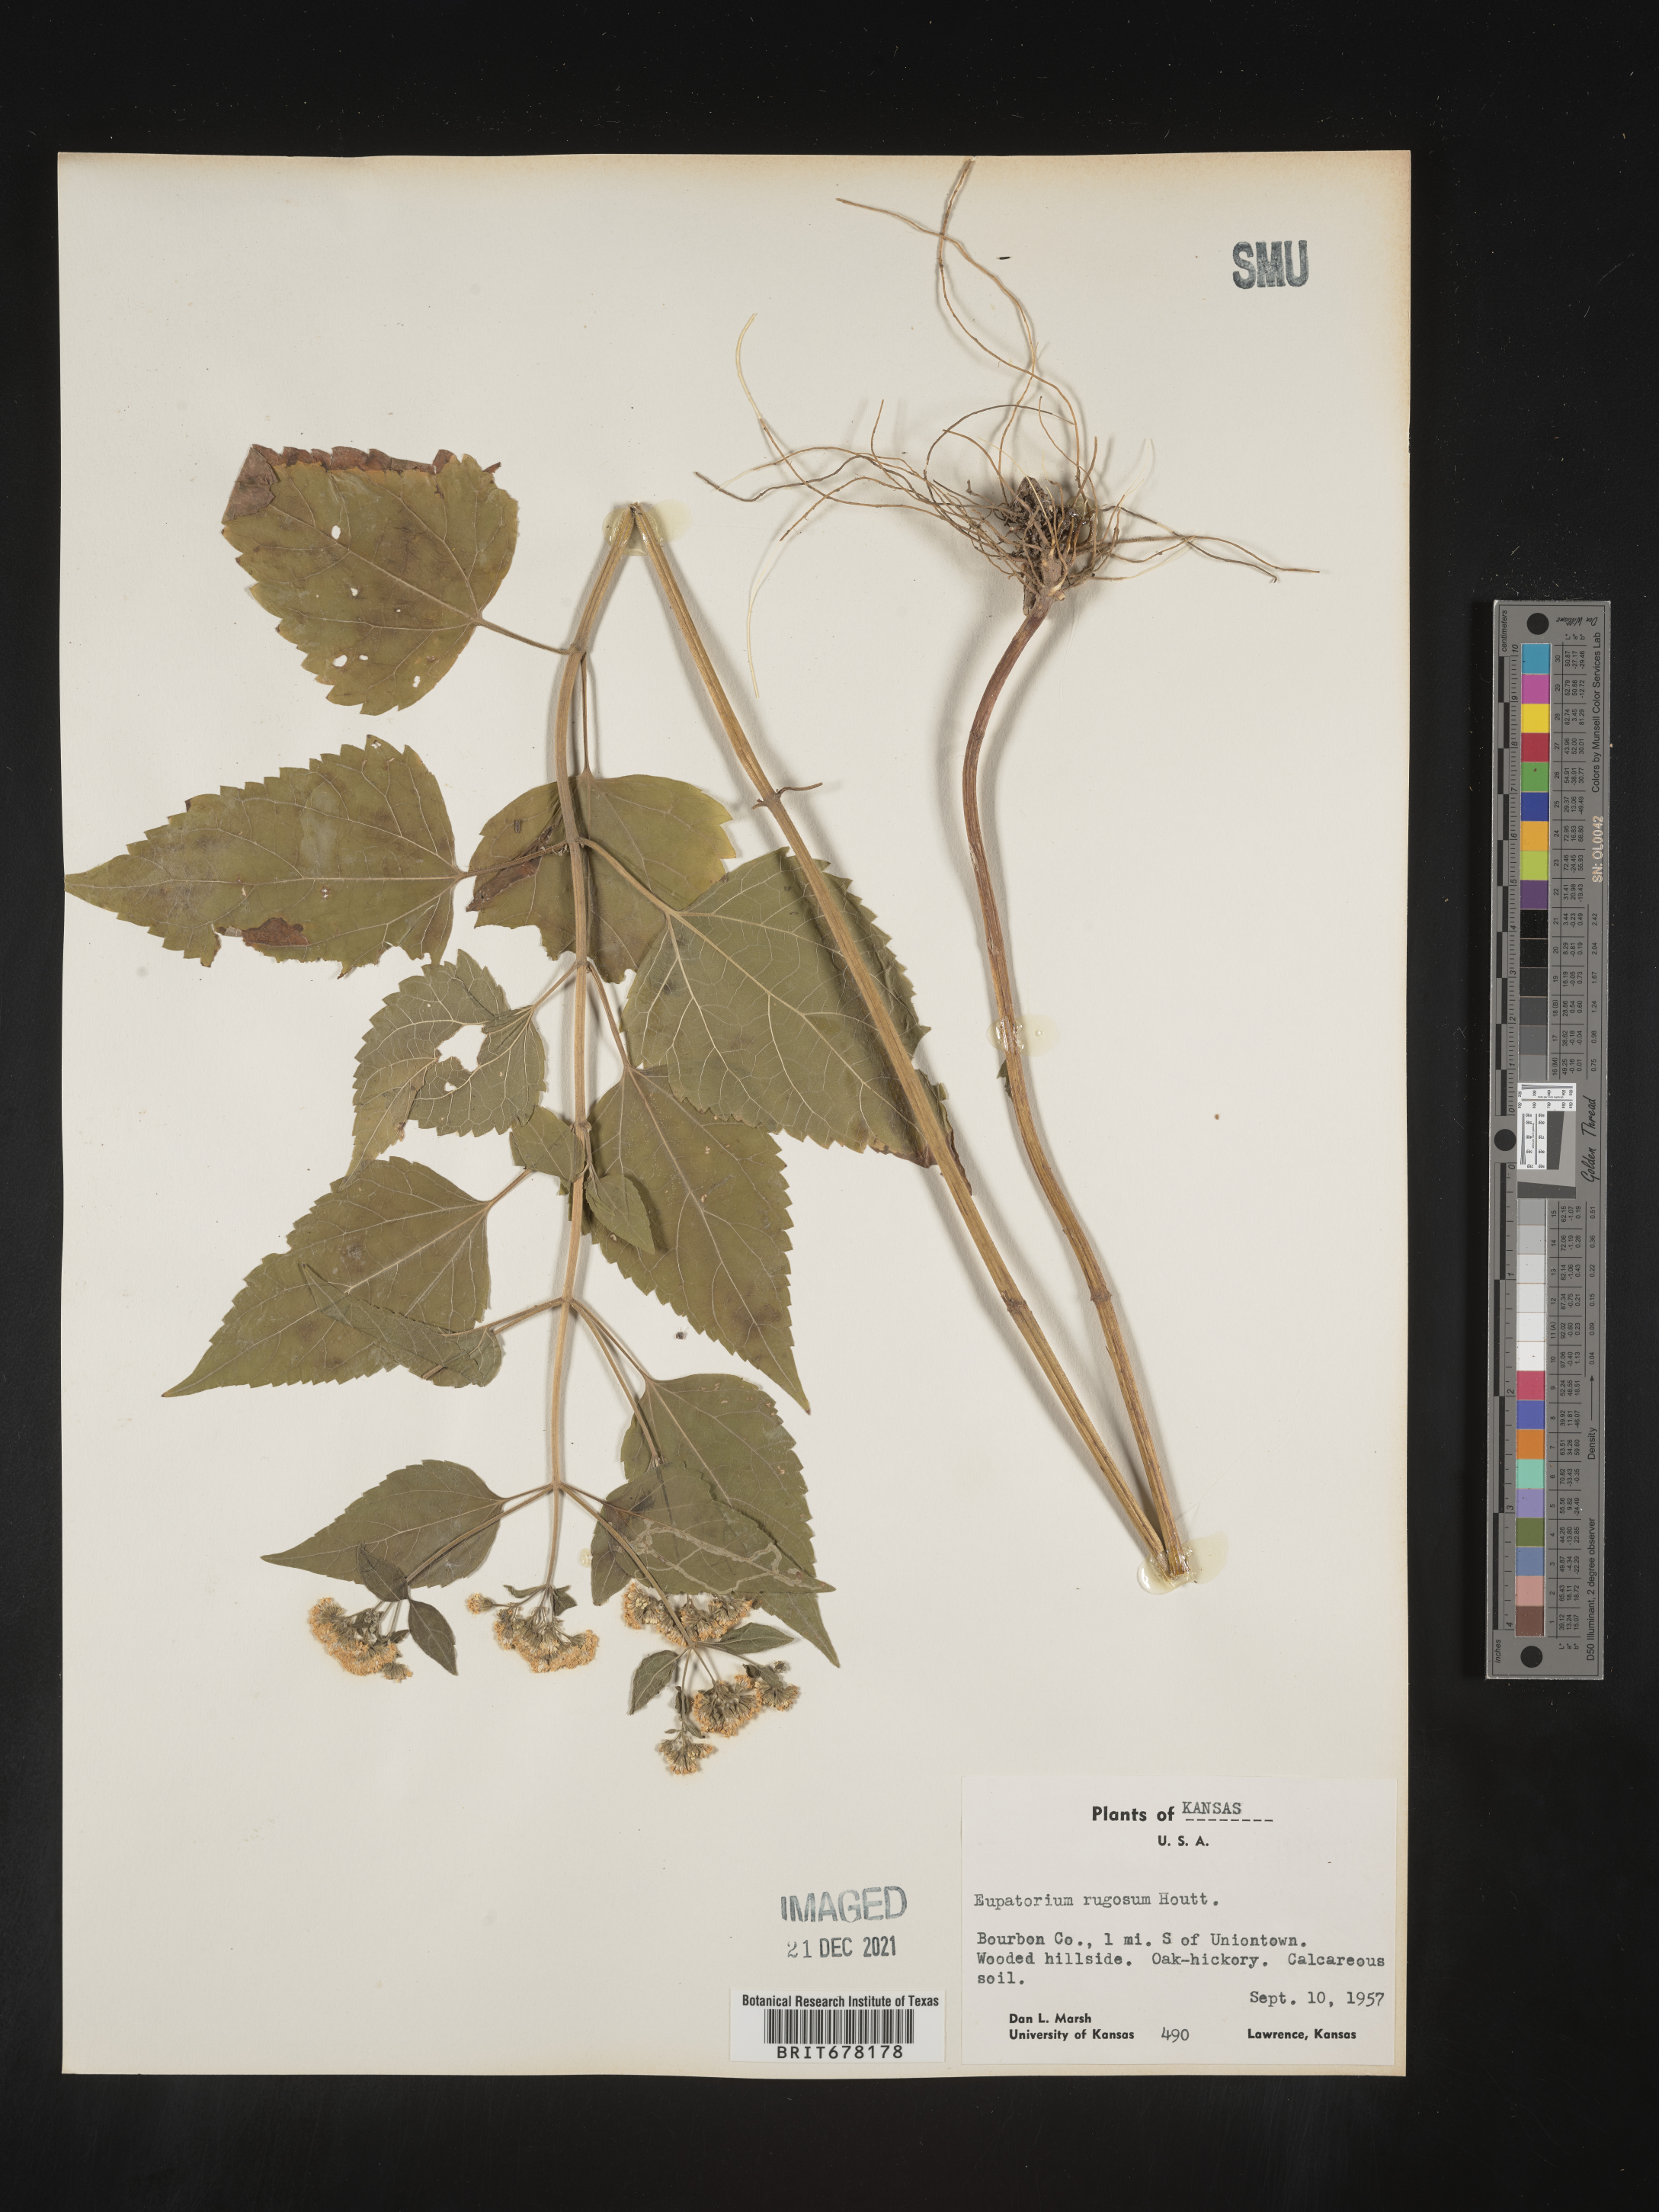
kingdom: Plantae
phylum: Tracheophyta
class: Magnoliopsida
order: Asterales
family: Asteraceae
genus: Eupatorium
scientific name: Eupatorium
